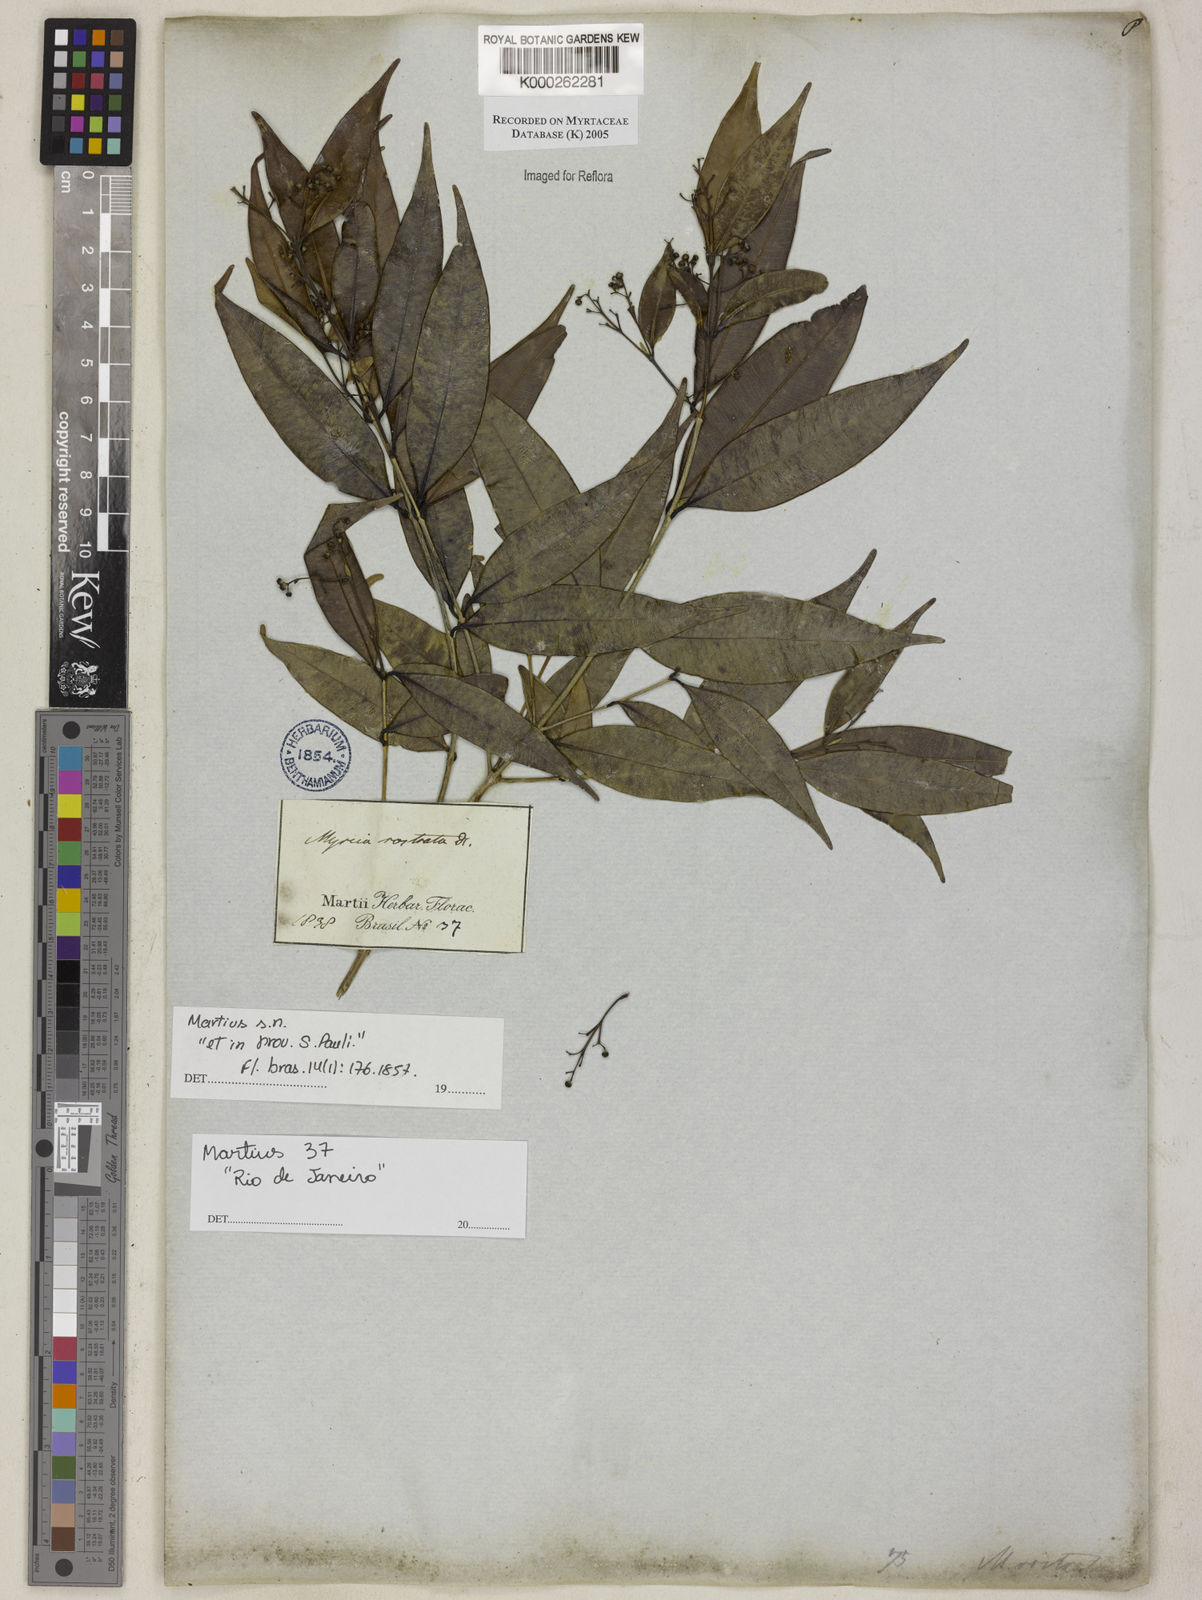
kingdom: Plantae
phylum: Tracheophyta
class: Magnoliopsida
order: Myrtales
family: Myrtaceae
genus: Myrcia
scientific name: Myrcia splendens
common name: Surinam cherry
